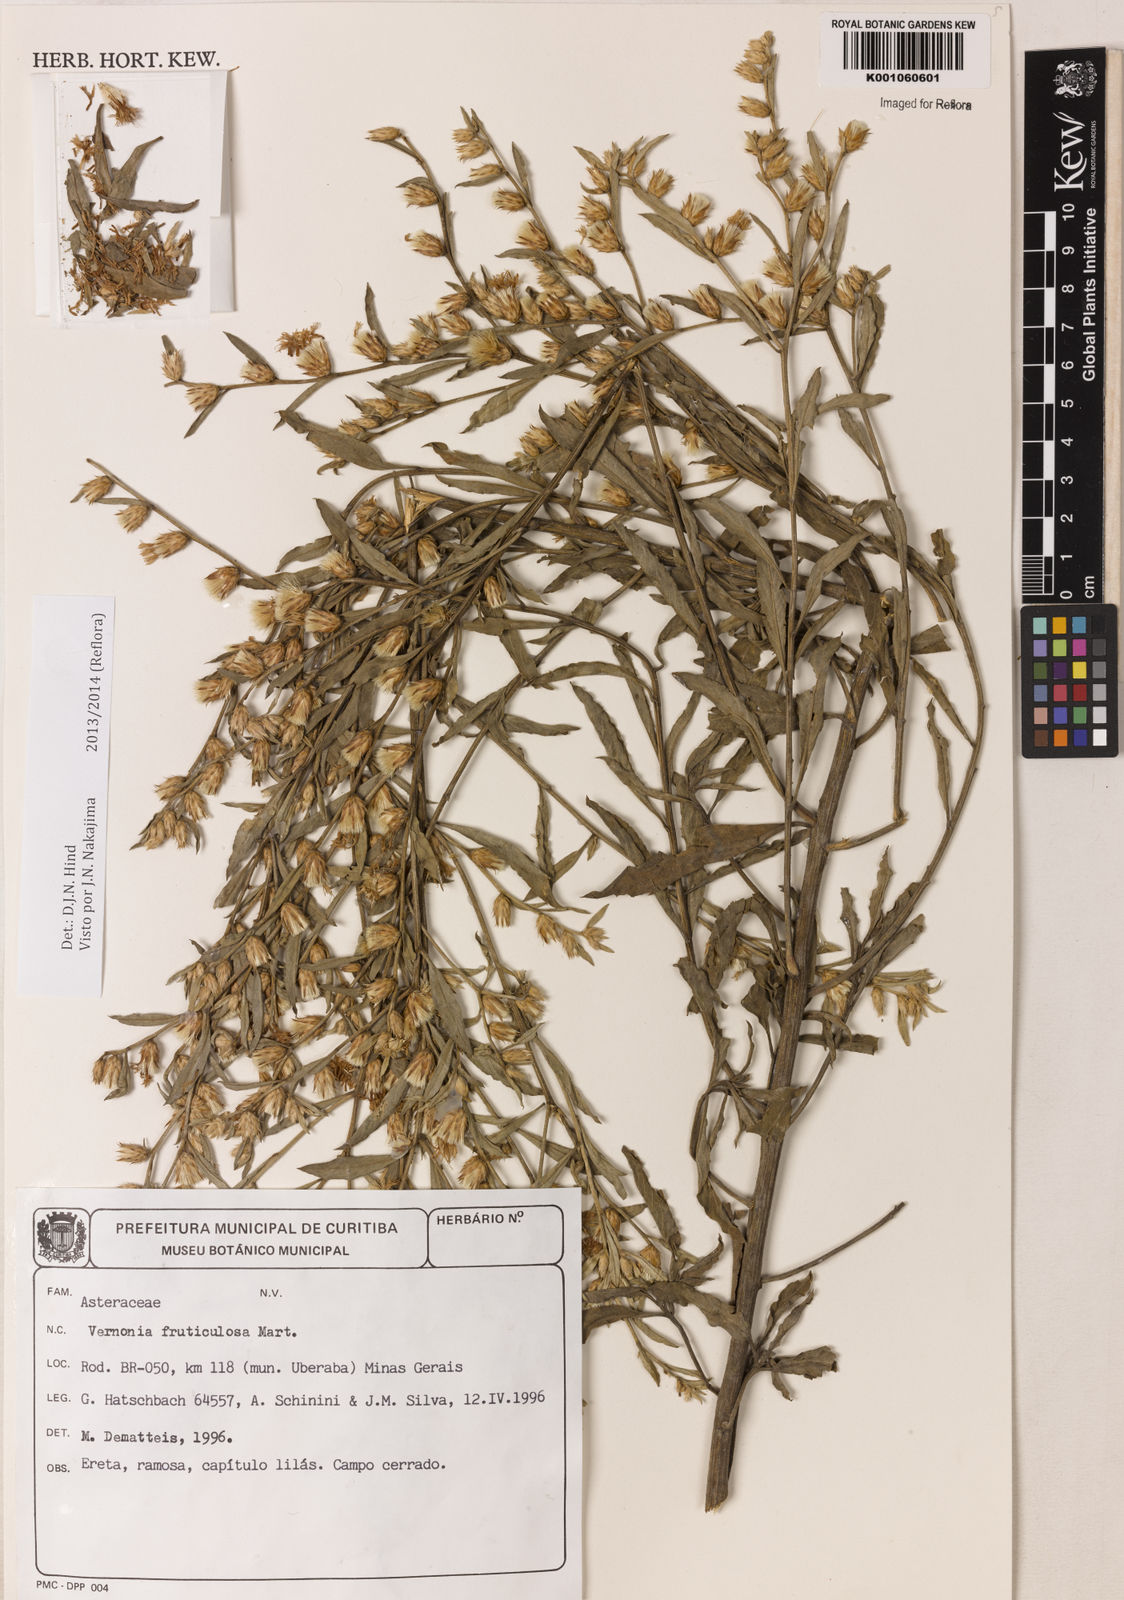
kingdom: Plantae
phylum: Tracheophyta
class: Magnoliopsida
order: Asterales
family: Asteraceae
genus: Lepidaploa
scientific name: Lepidaploa rufogrisea
